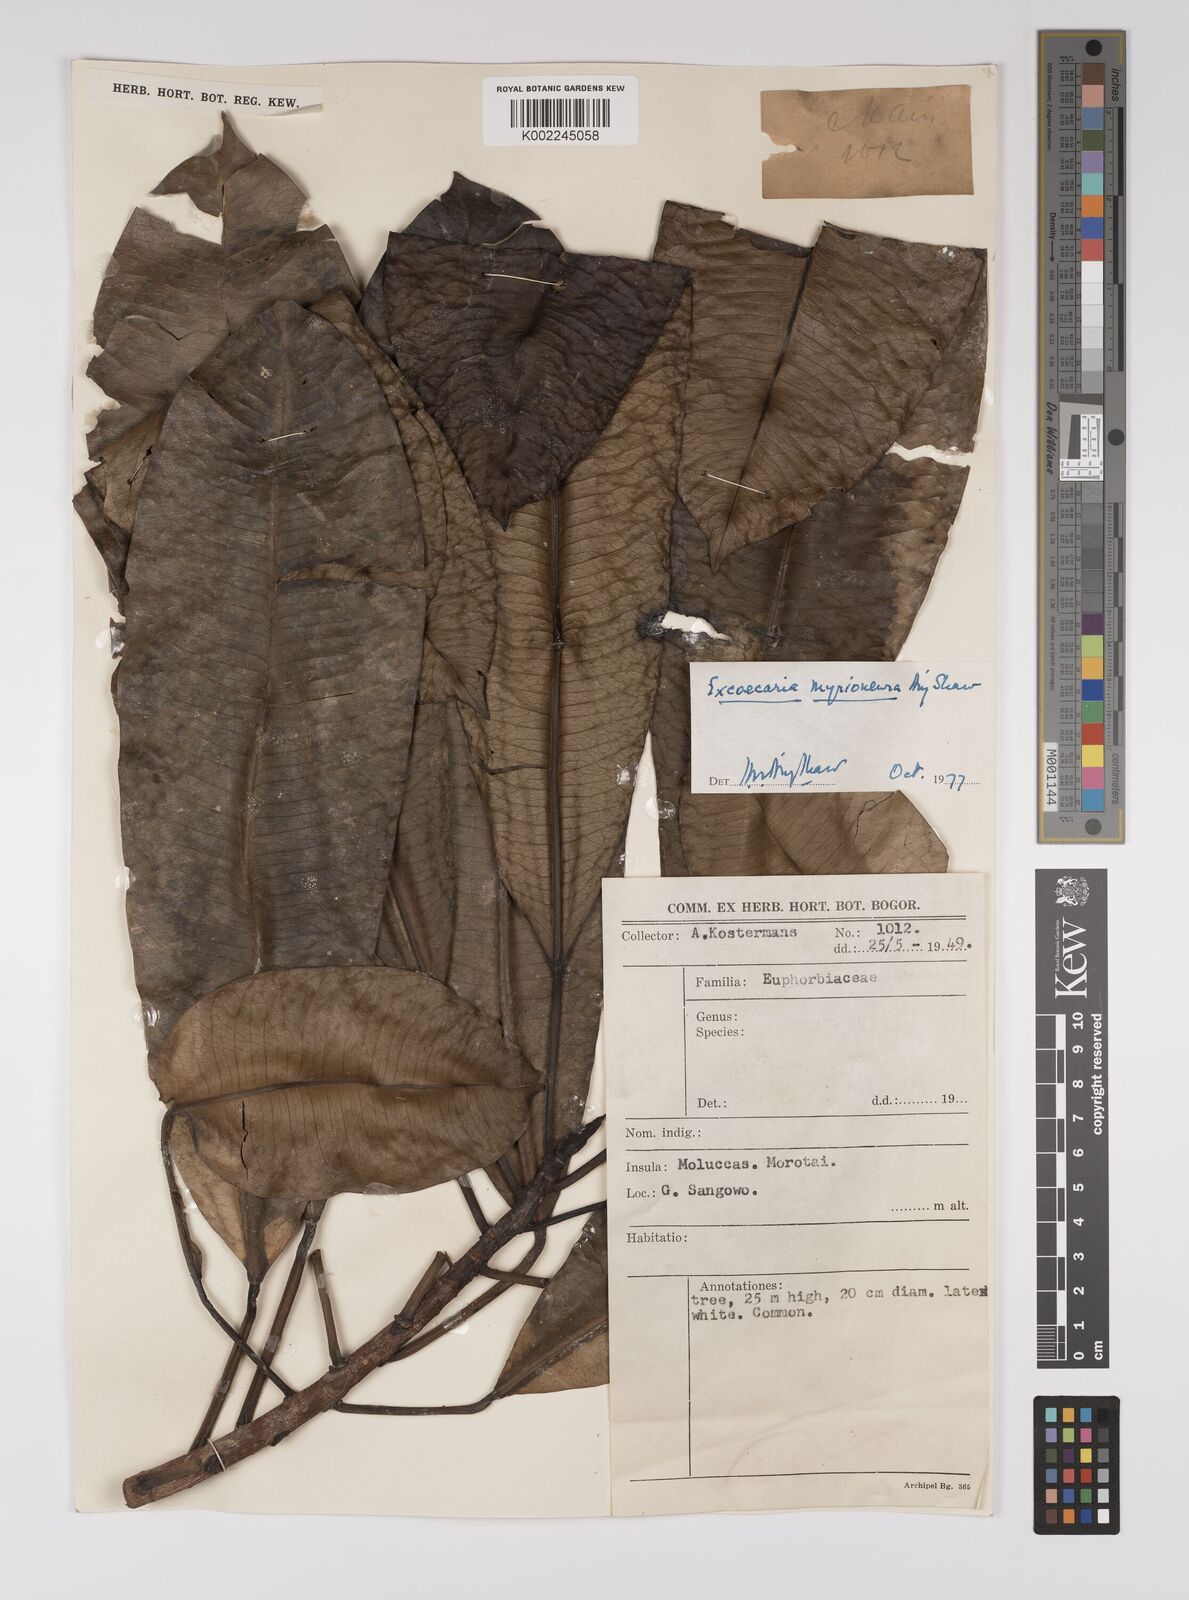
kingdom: Plantae
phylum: Tracheophyta
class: Magnoliopsida
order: Malpighiales
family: Euphorbiaceae
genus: Excoecaria
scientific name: Excoecaria myrioneura
